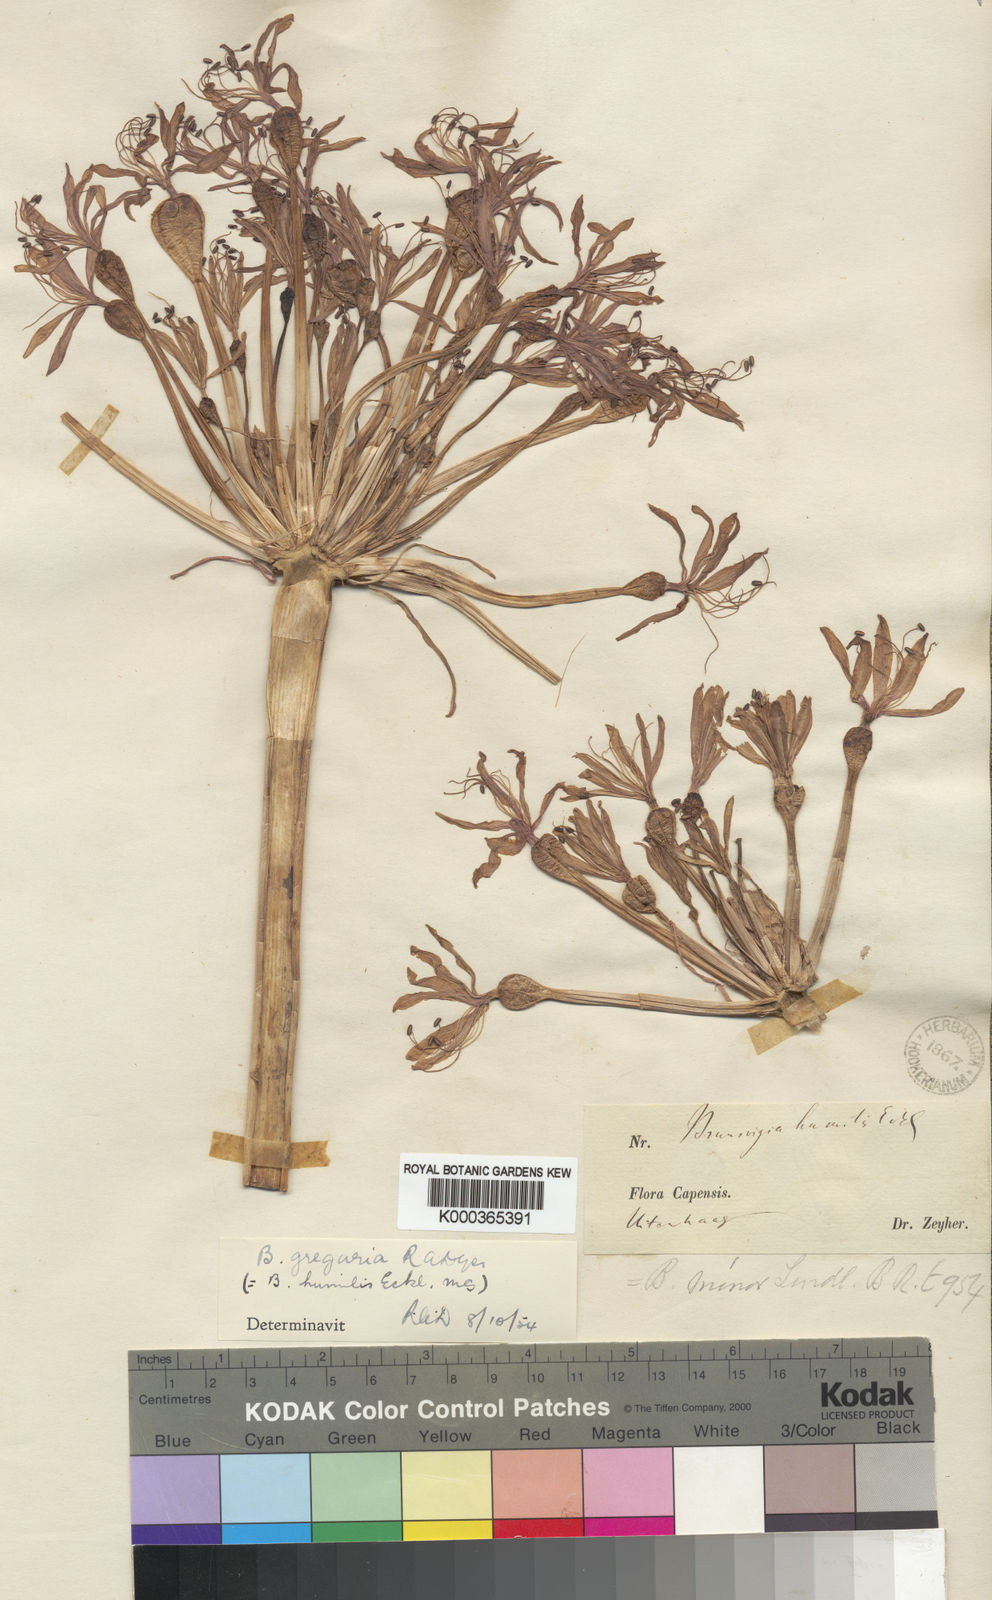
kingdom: Plantae
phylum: Tracheophyta
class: Liliopsida
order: Asparagales
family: Amaryllidaceae
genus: Brunsvigia
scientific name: Brunsvigia gregaria
